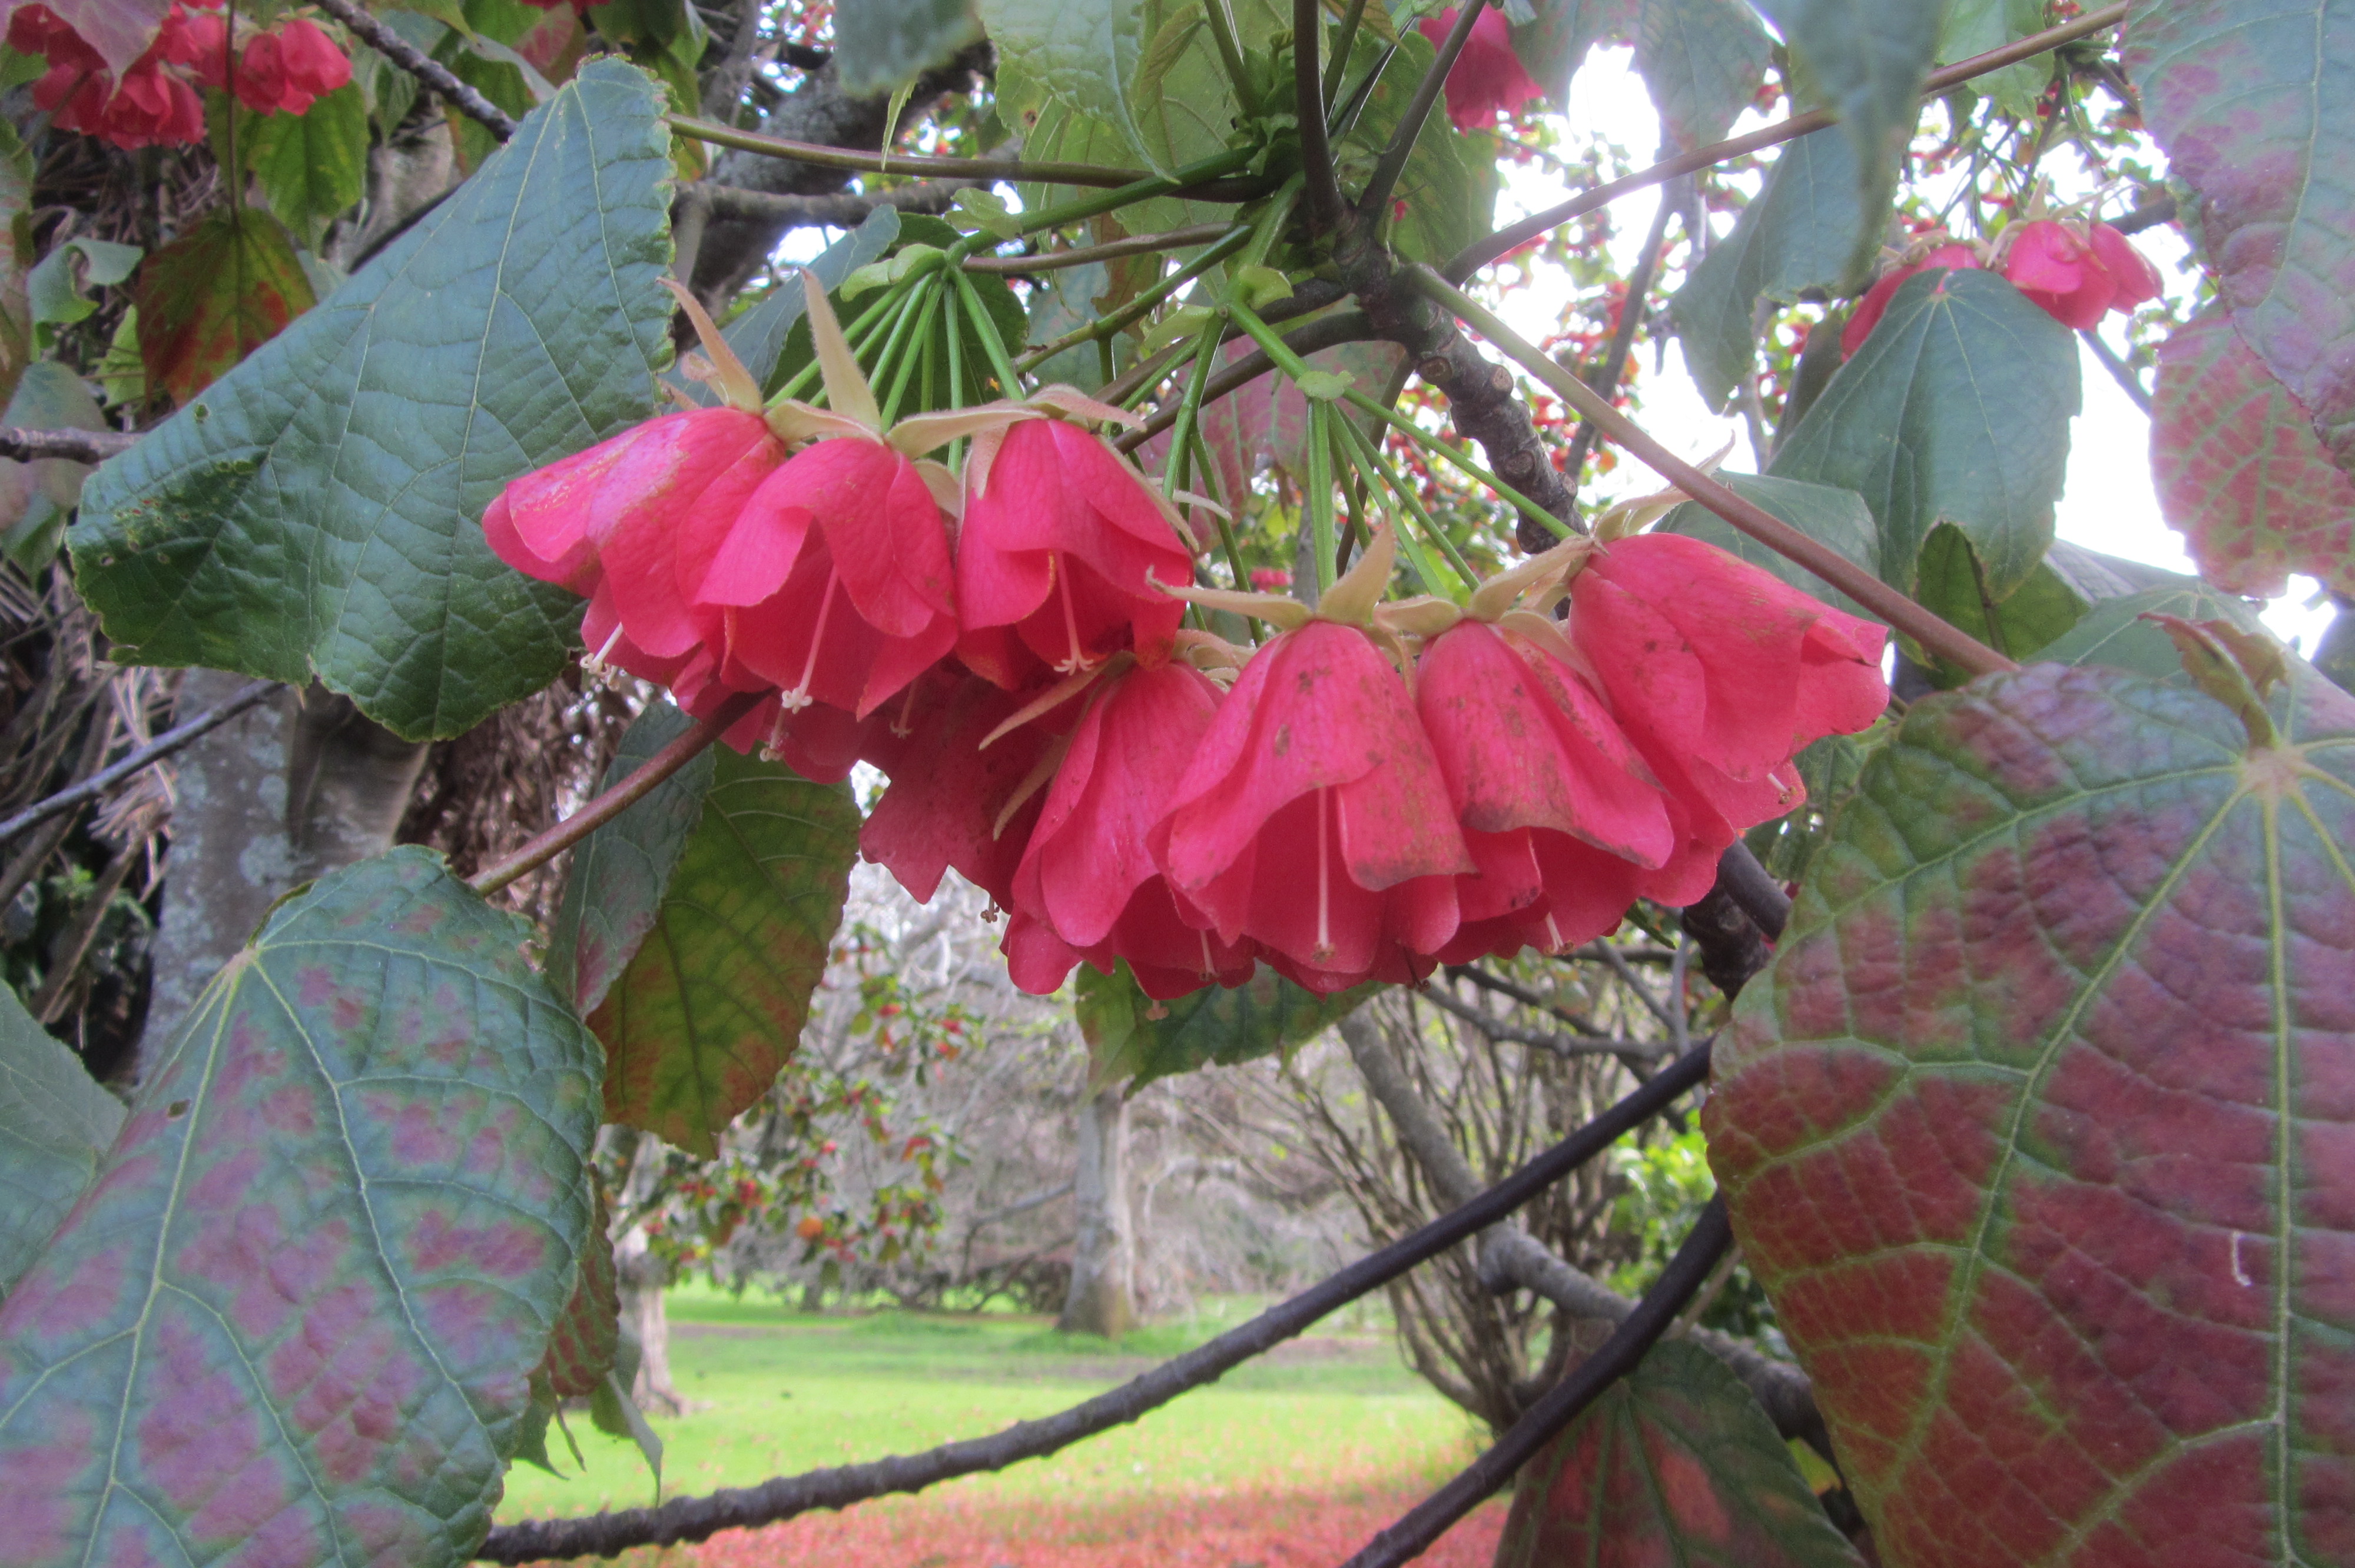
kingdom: Plantae
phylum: Tracheophyta
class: Magnoliopsida
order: Malvales
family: Malvaceae
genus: Dombeya
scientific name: Dombeya cacuminum
